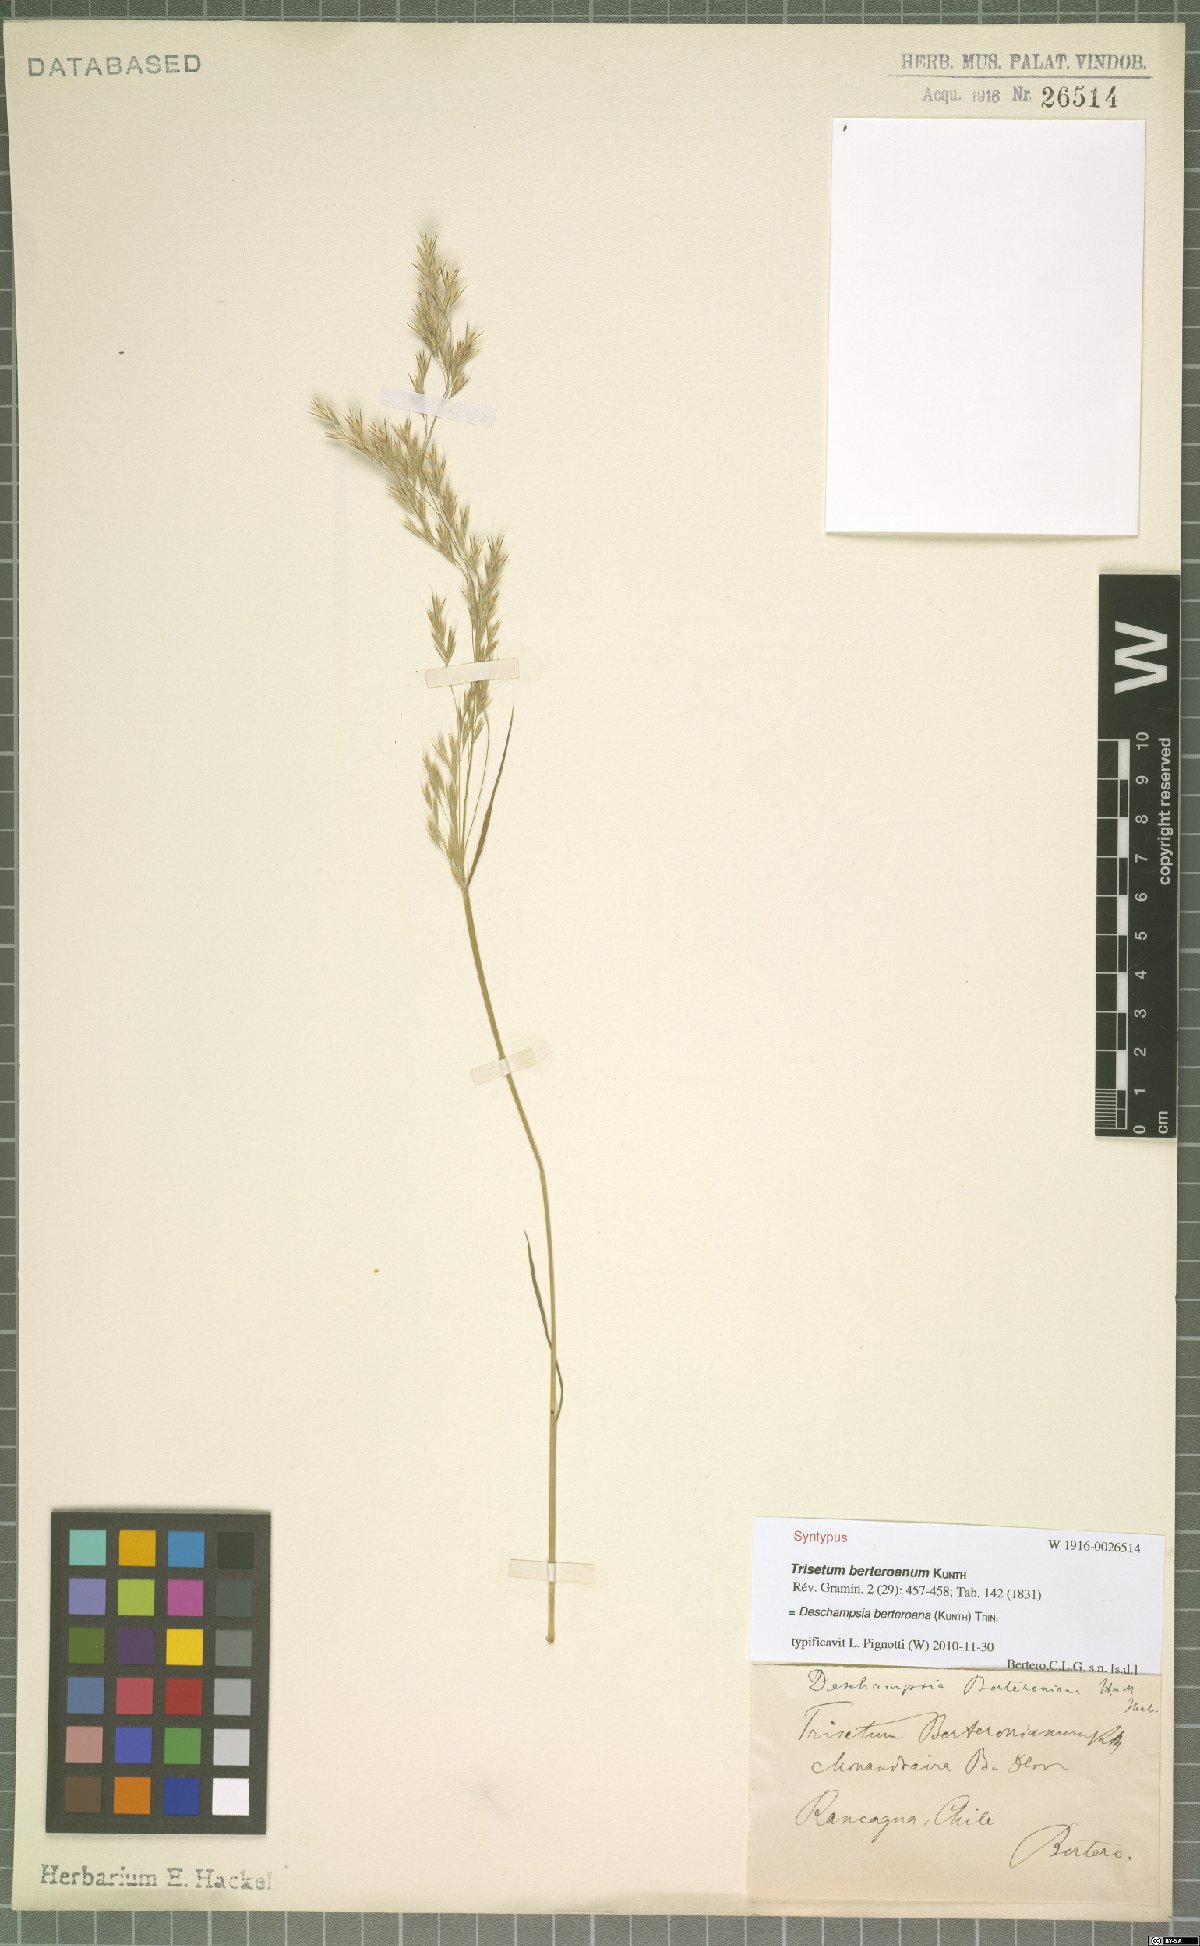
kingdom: Plantae
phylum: Tracheophyta
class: Liliopsida
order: Poales
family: Poaceae
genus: Deschampsia
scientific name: Deschampsia berteroana
